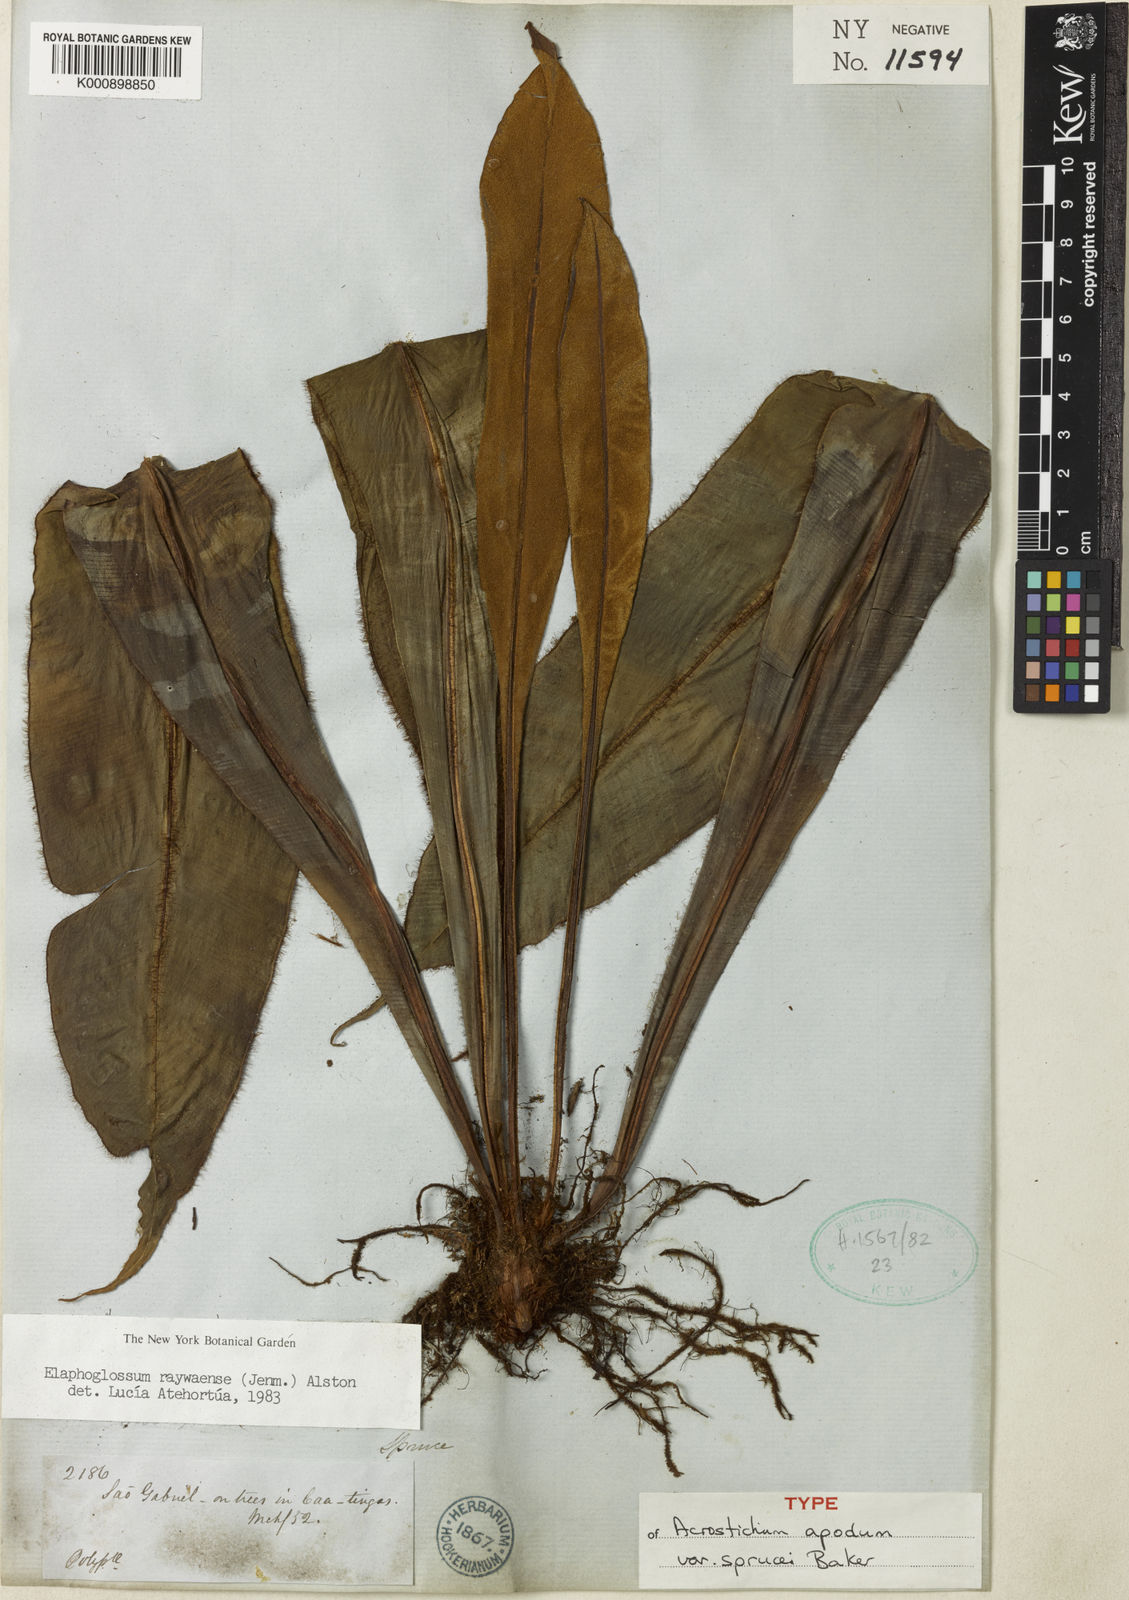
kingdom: Plantae
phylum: Tracheophyta
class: Polypodiopsida
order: Polypodiales
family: Dryopteridaceae
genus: Elaphoglossum
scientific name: Elaphoglossum raywaense
